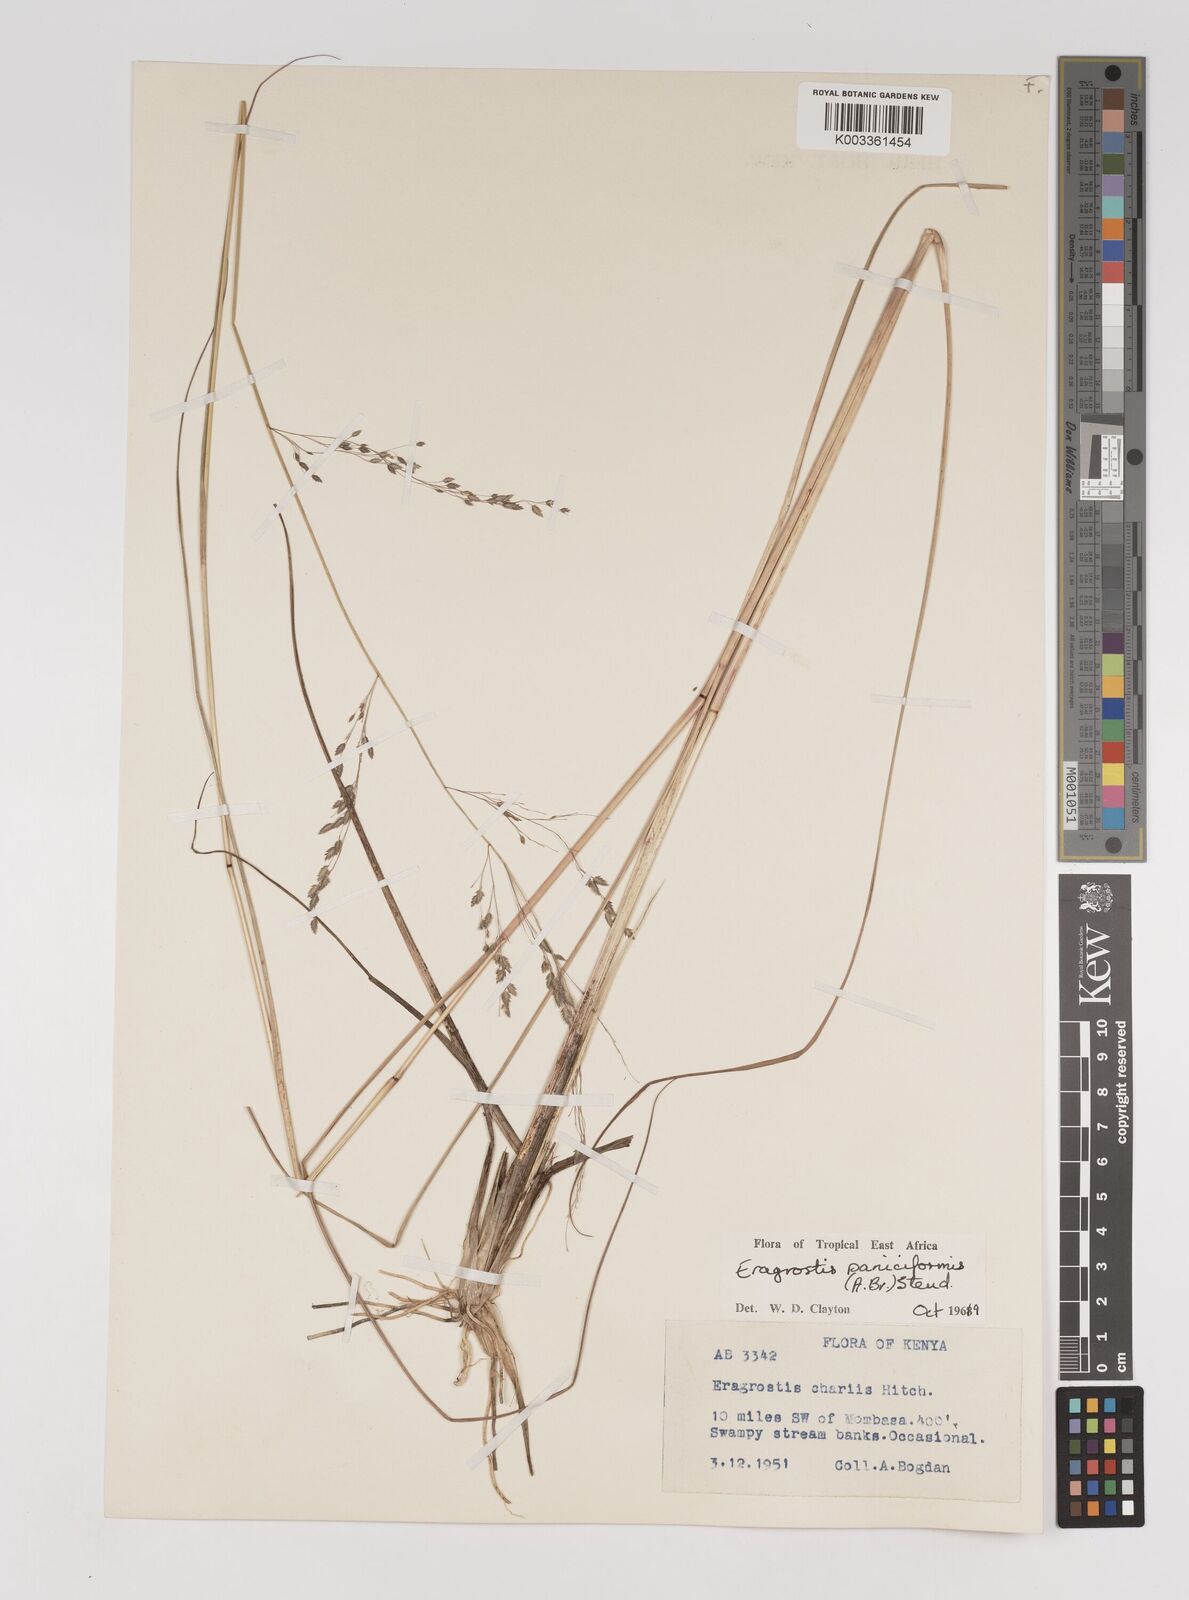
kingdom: Plantae
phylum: Tracheophyta
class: Liliopsida
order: Poales
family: Poaceae
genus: Eragrostis
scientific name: Eragrostis paniciformis
